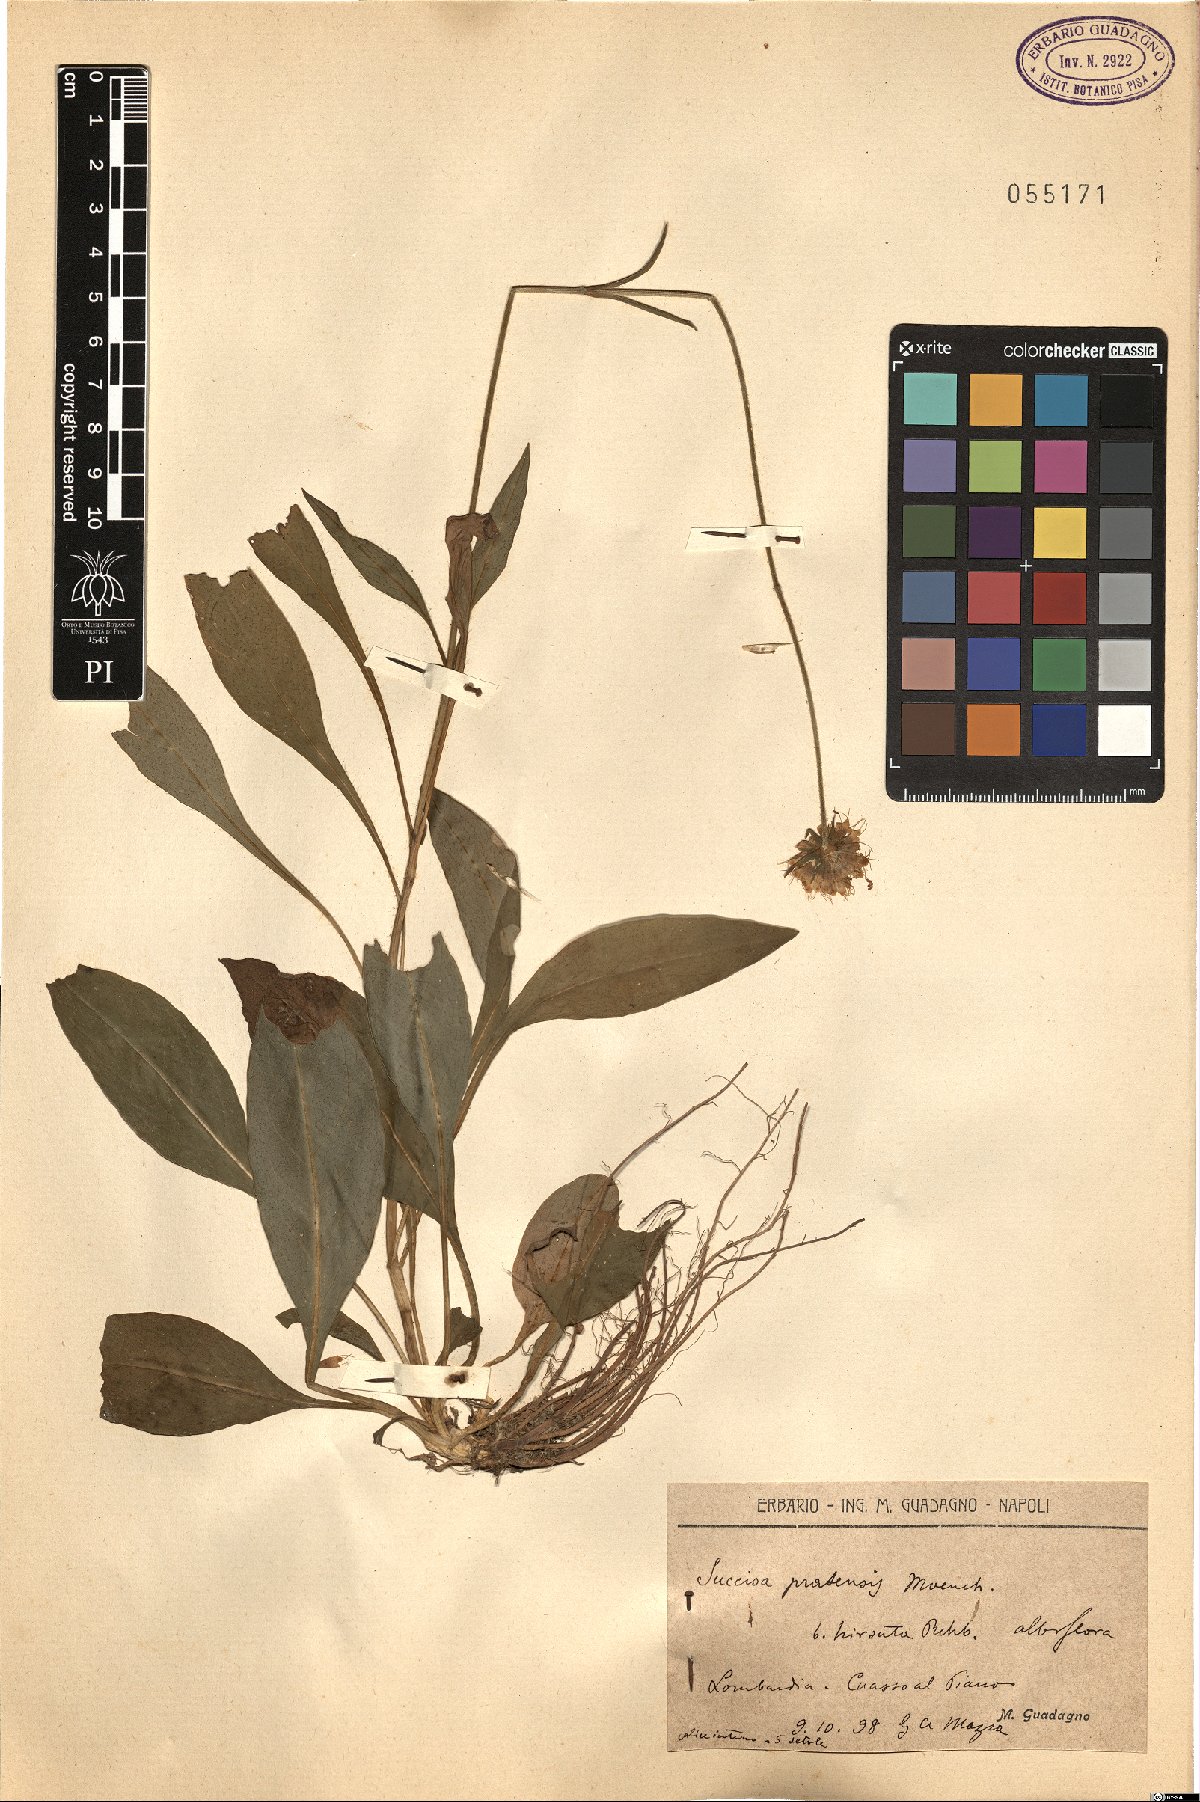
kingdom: Plantae
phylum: Tracheophyta
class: Magnoliopsida
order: Dipsacales
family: Caprifoliaceae
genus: Succisa
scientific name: Succisa pratensis
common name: Devil's-bit
